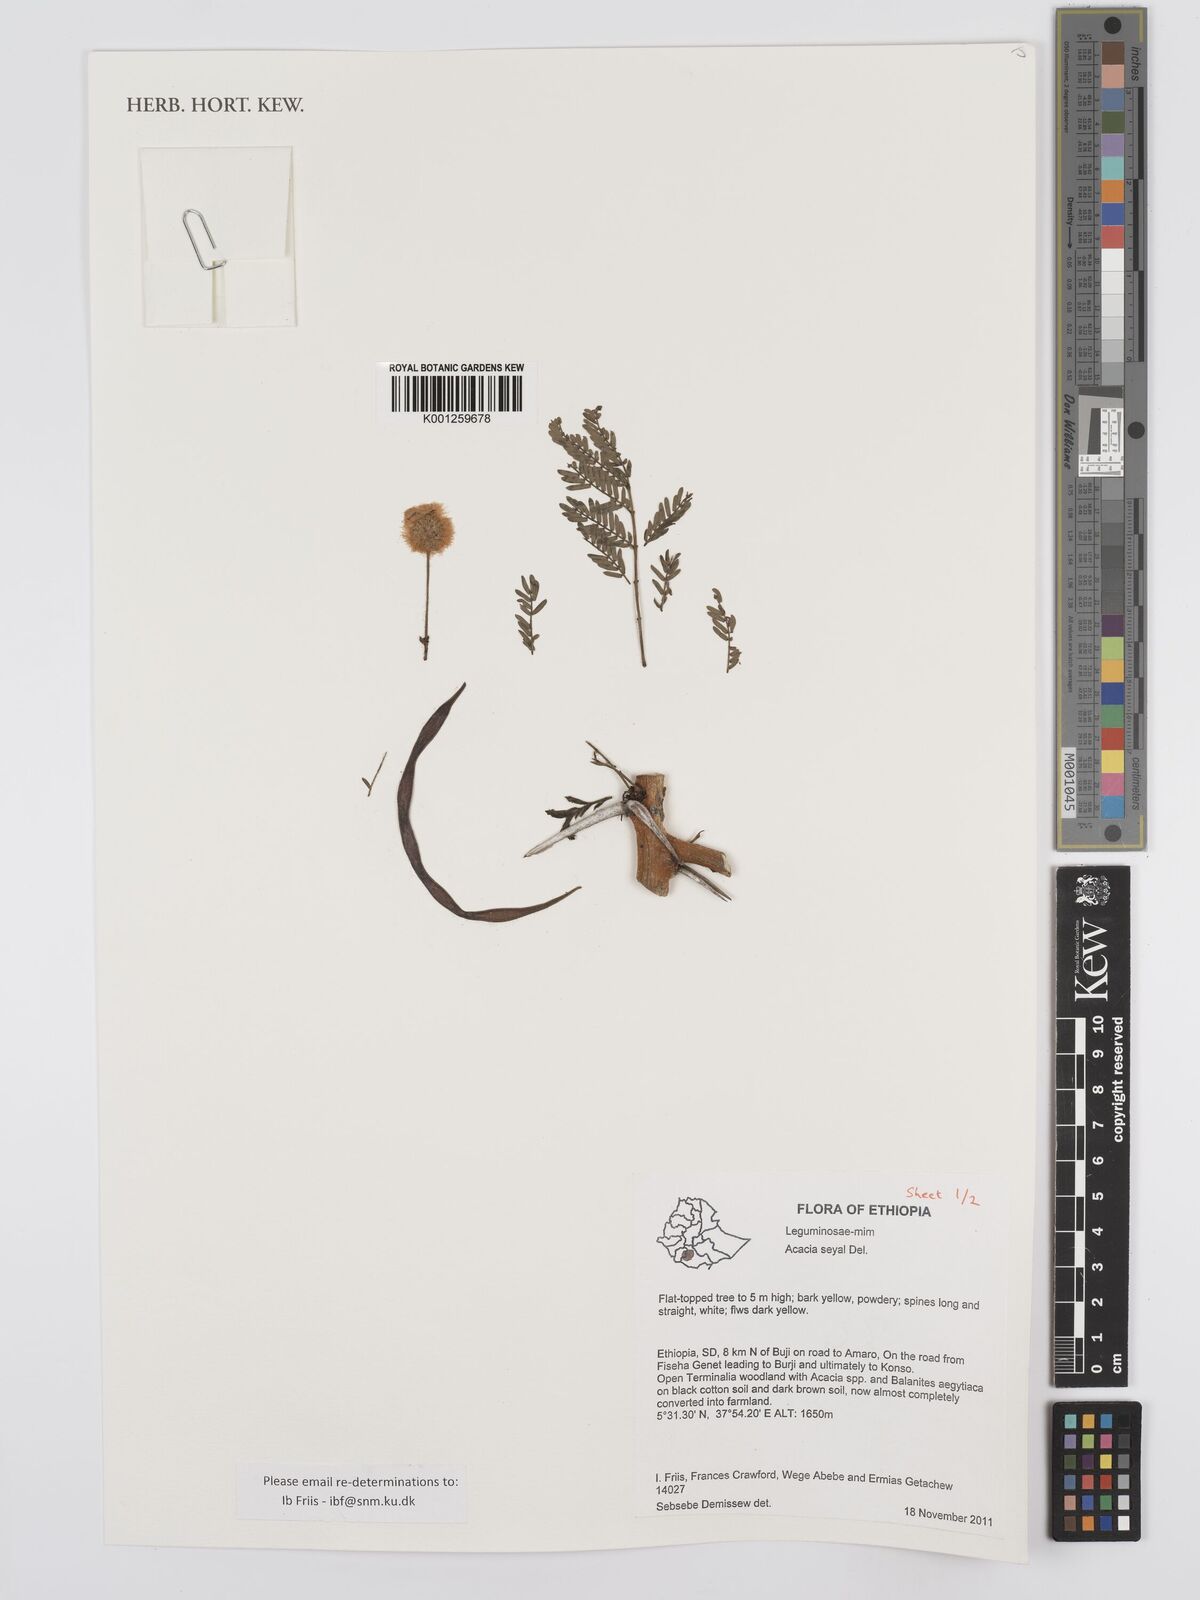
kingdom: Plantae
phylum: Tracheophyta
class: Magnoliopsida
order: Fabales
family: Fabaceae
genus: Vachellia
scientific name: Vachellia seyal
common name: Thirtythorn
